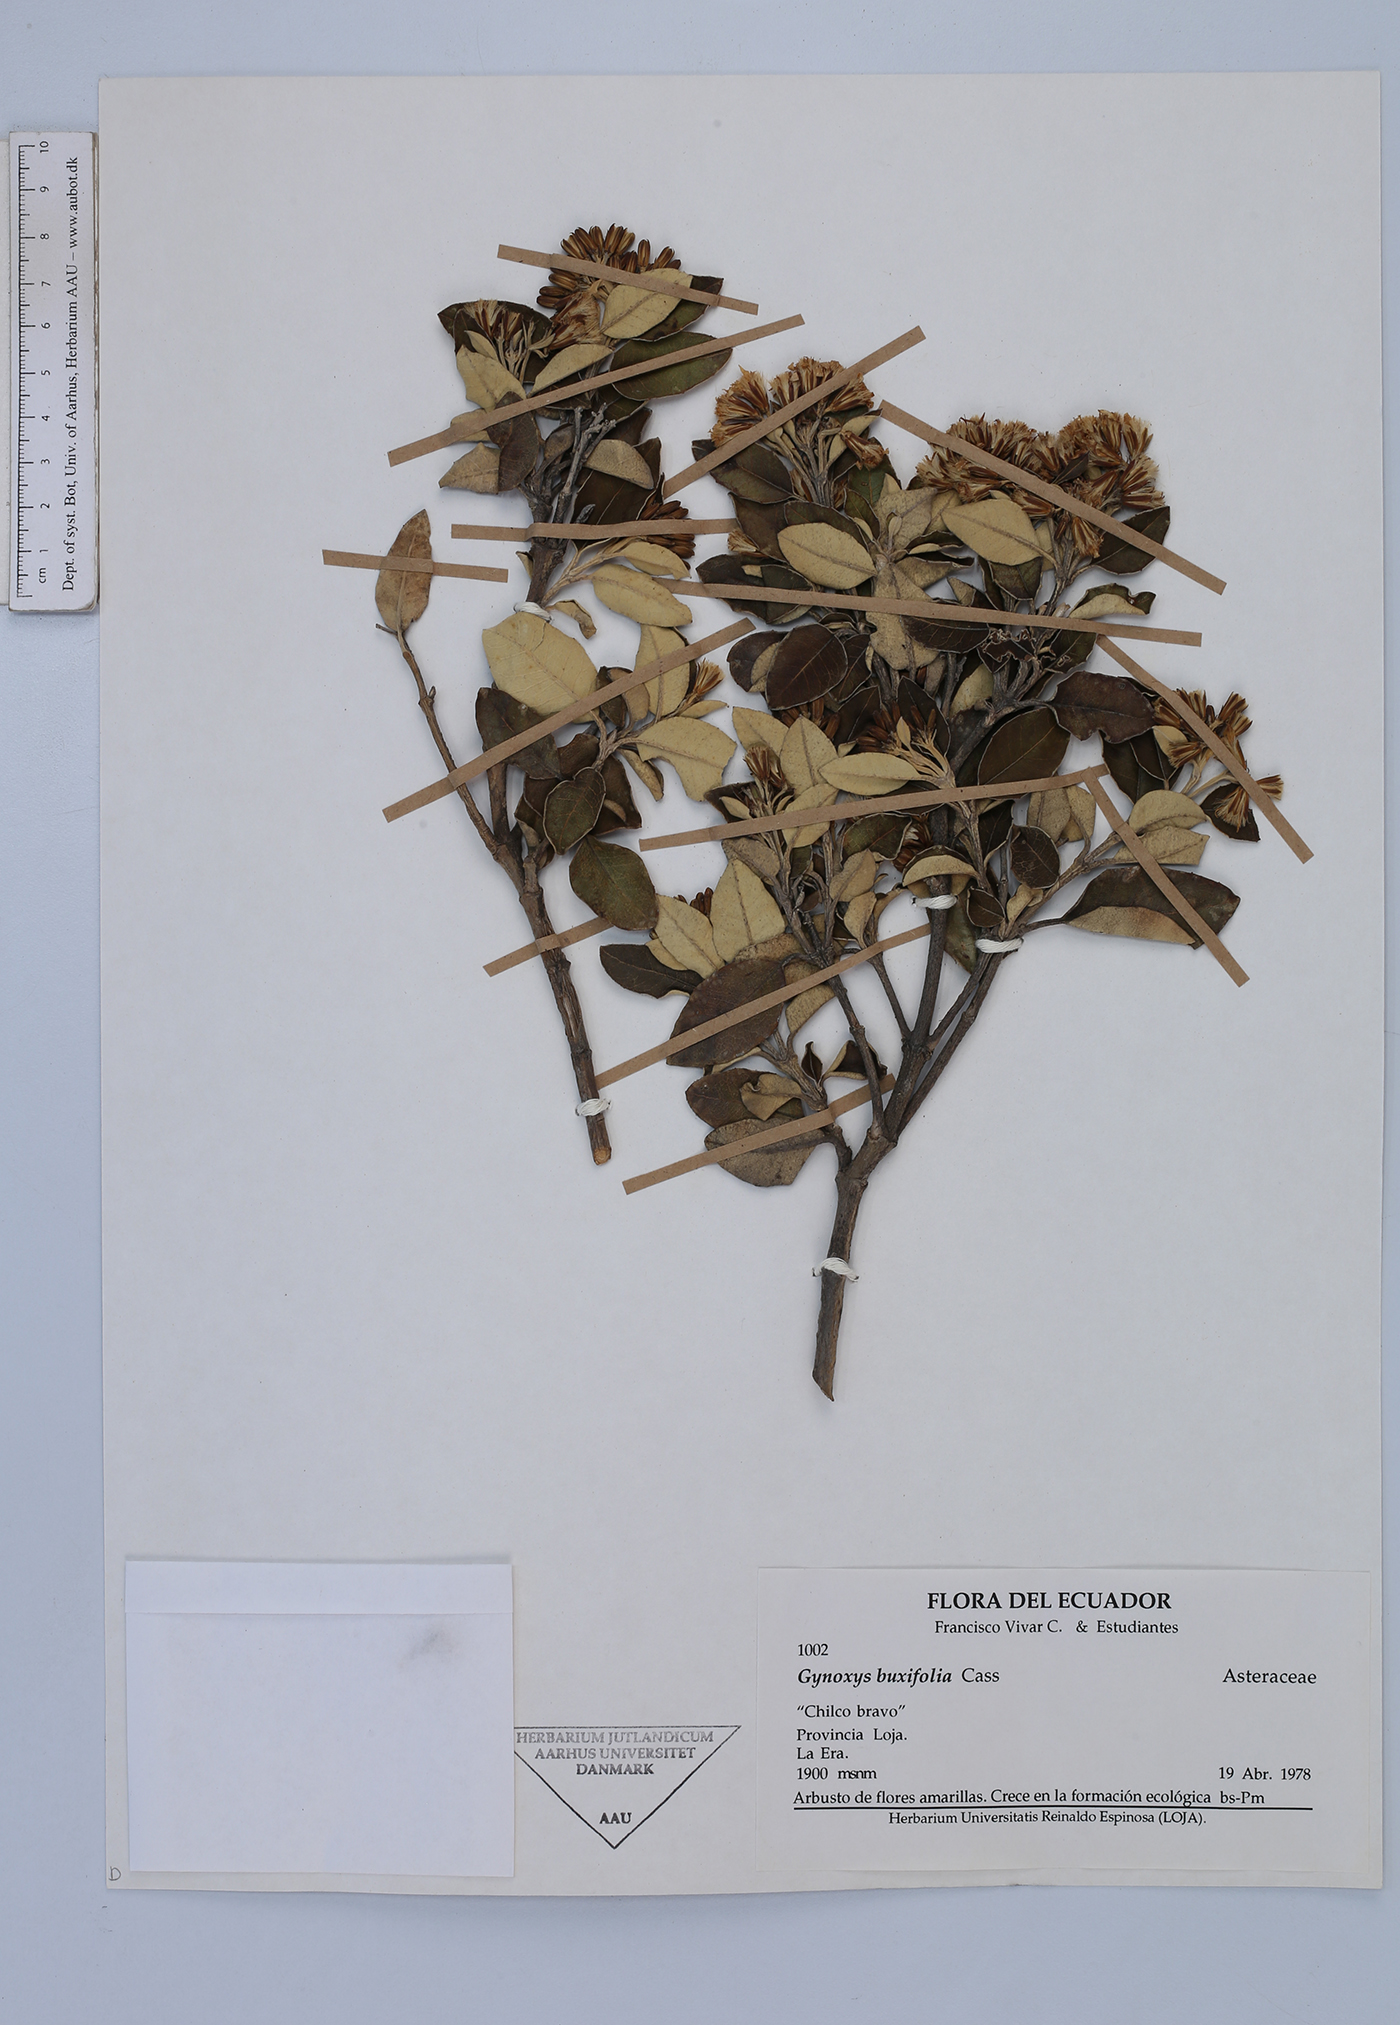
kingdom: Plantae
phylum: Tracheophyta
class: Magnoliopsida
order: Asterales
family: Asteraceae
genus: Gynoxys
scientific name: Gynoxys reinaldi
